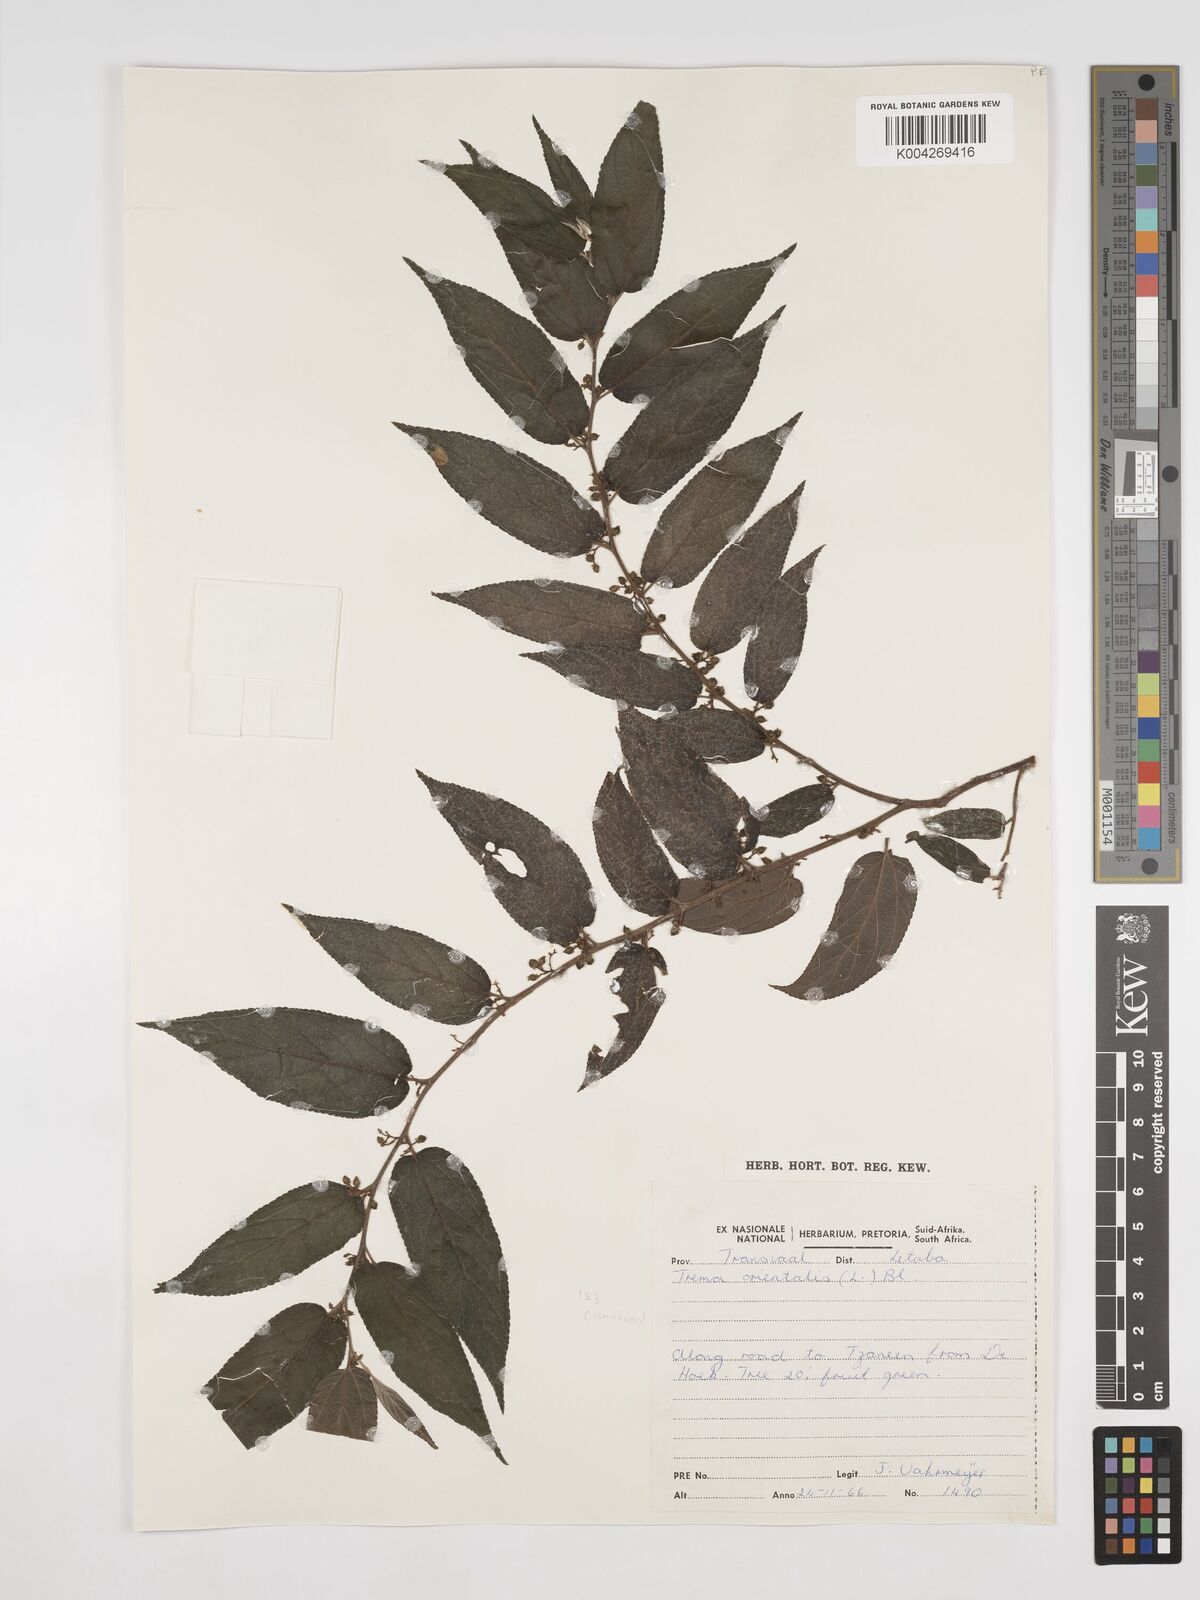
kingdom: Plantae
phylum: Tracheophyta
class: Magnoliopsida
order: Rosales
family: Cannabaceae
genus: Trema
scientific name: Trema orientale
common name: Indian charcoal tree
